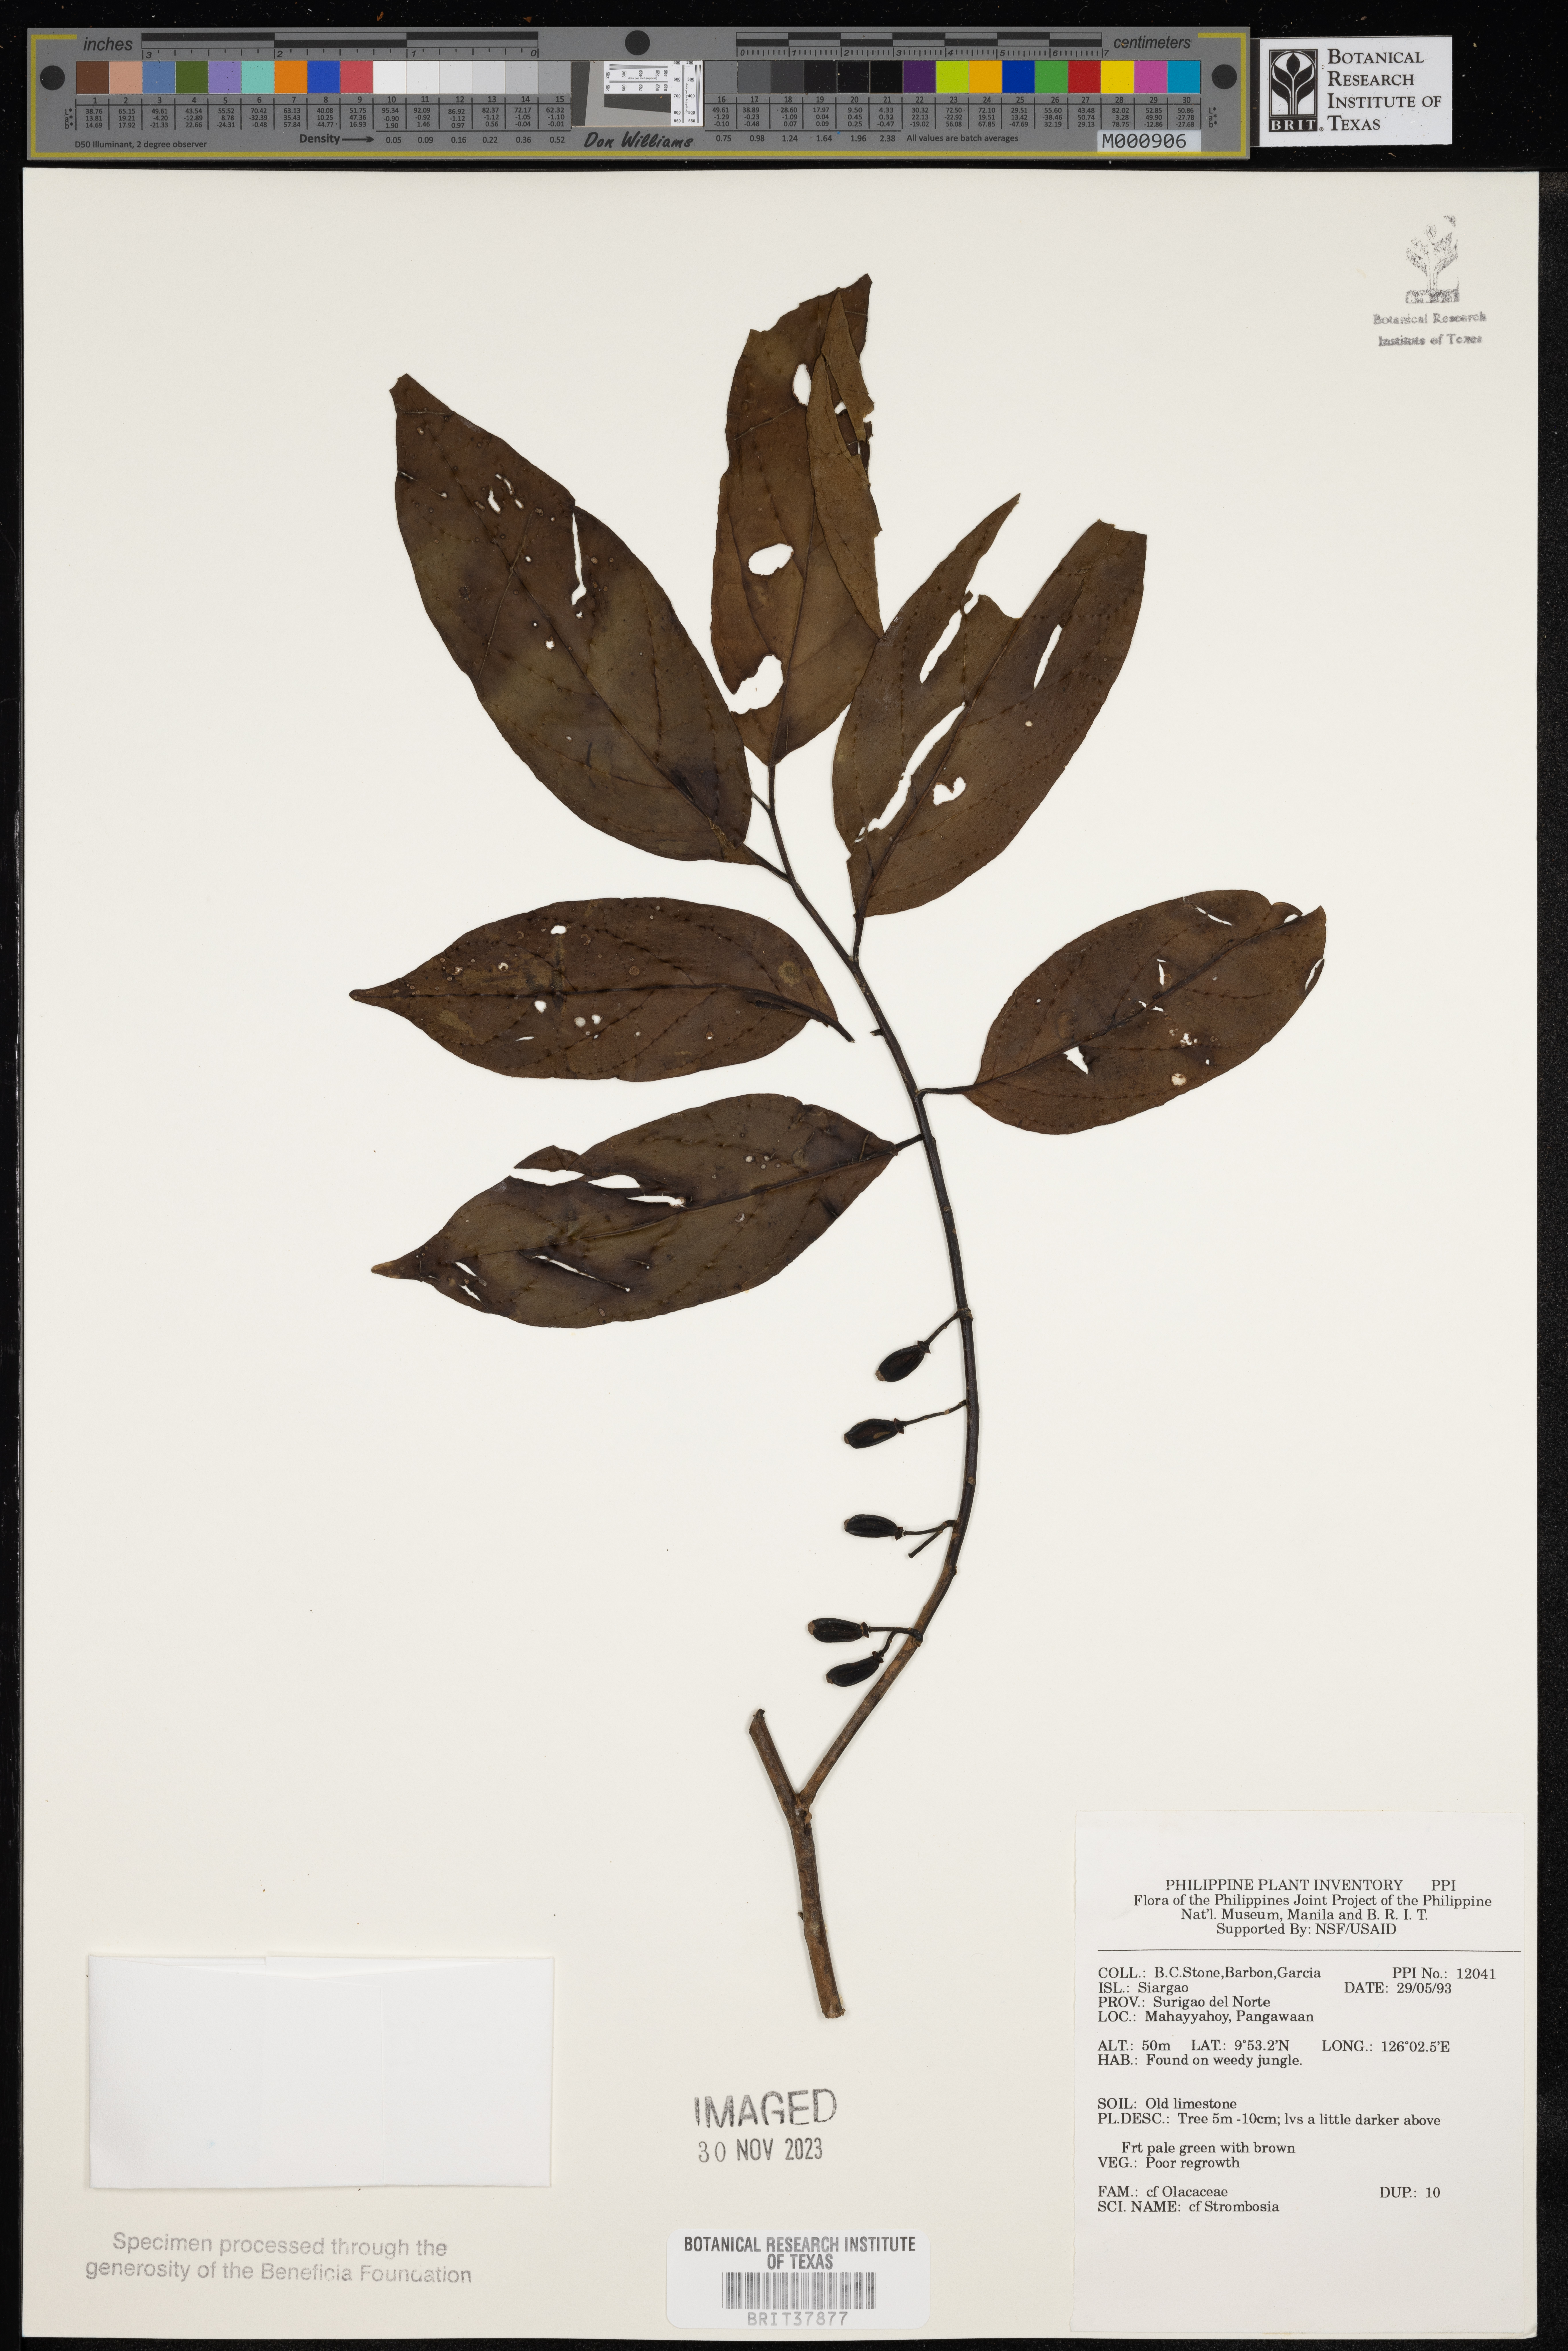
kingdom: Plantae
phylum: Tracheophyta
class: Magnoliopsida
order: Santalales
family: Strombosiaceae
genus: Strombosia
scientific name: Strombosia
